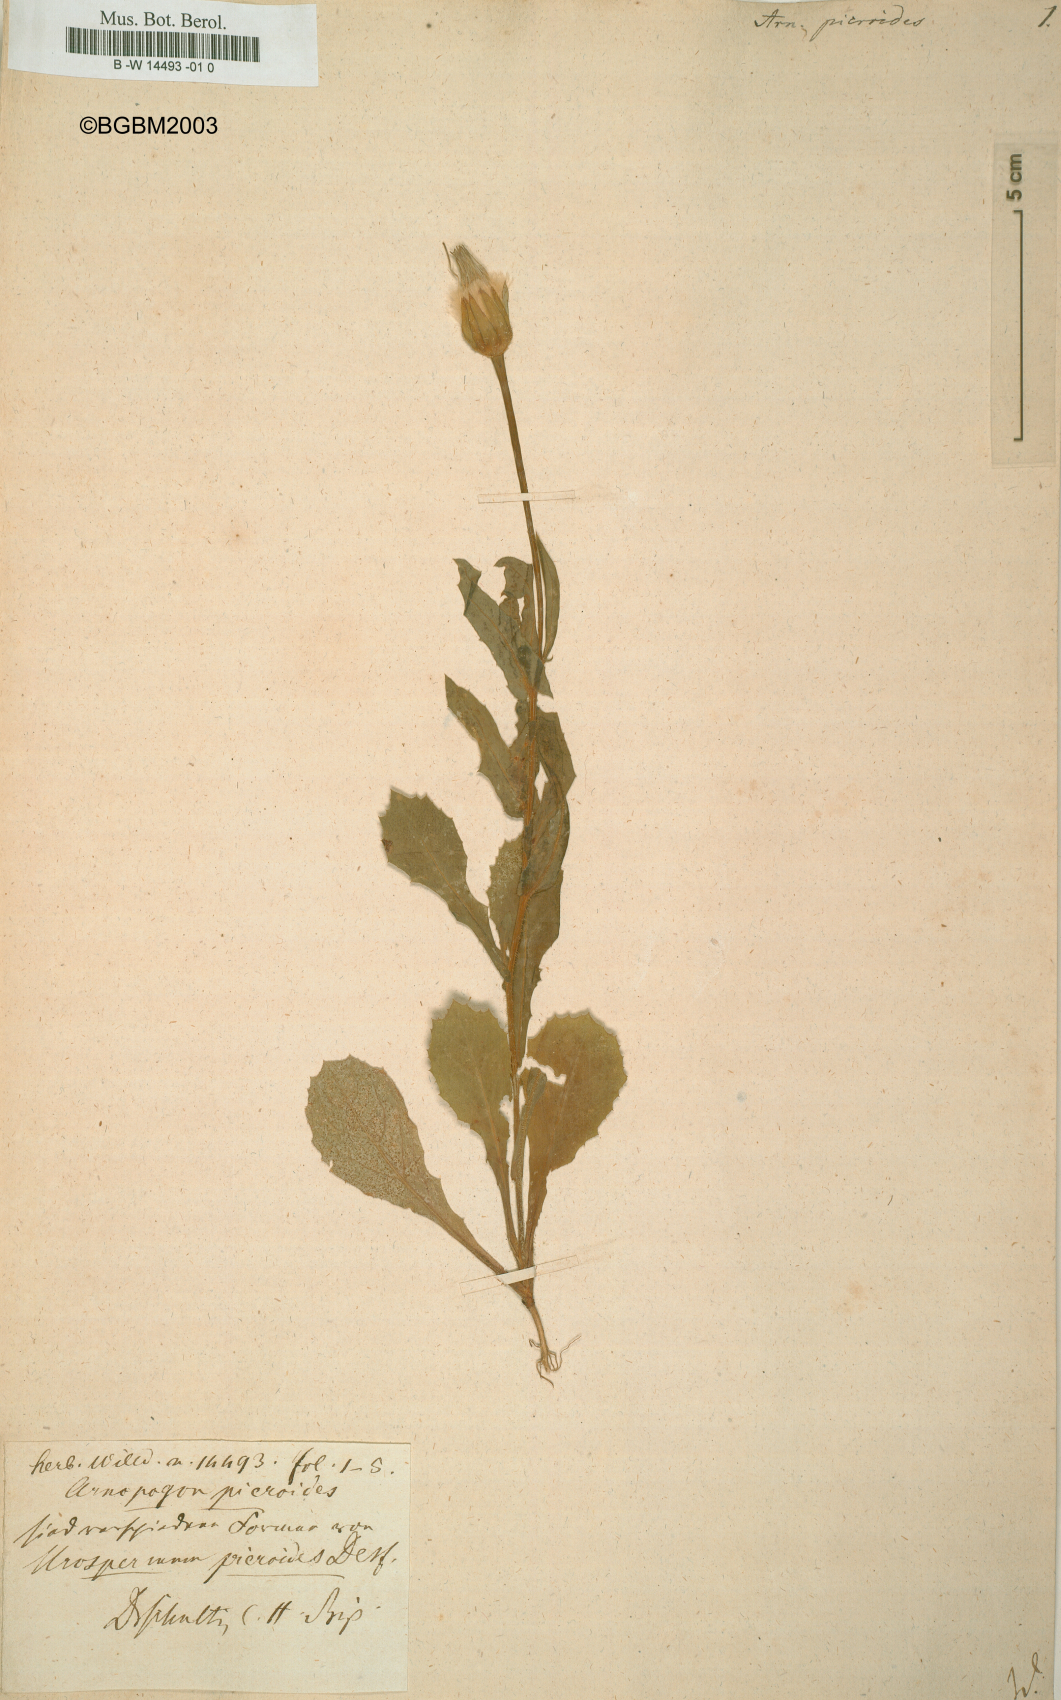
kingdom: Plantae
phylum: Tracheophyta
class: Magnoliopsida
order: Asterales
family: Asteraceae
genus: Urospermum
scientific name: Urospermum picroides
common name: False hawkbit
